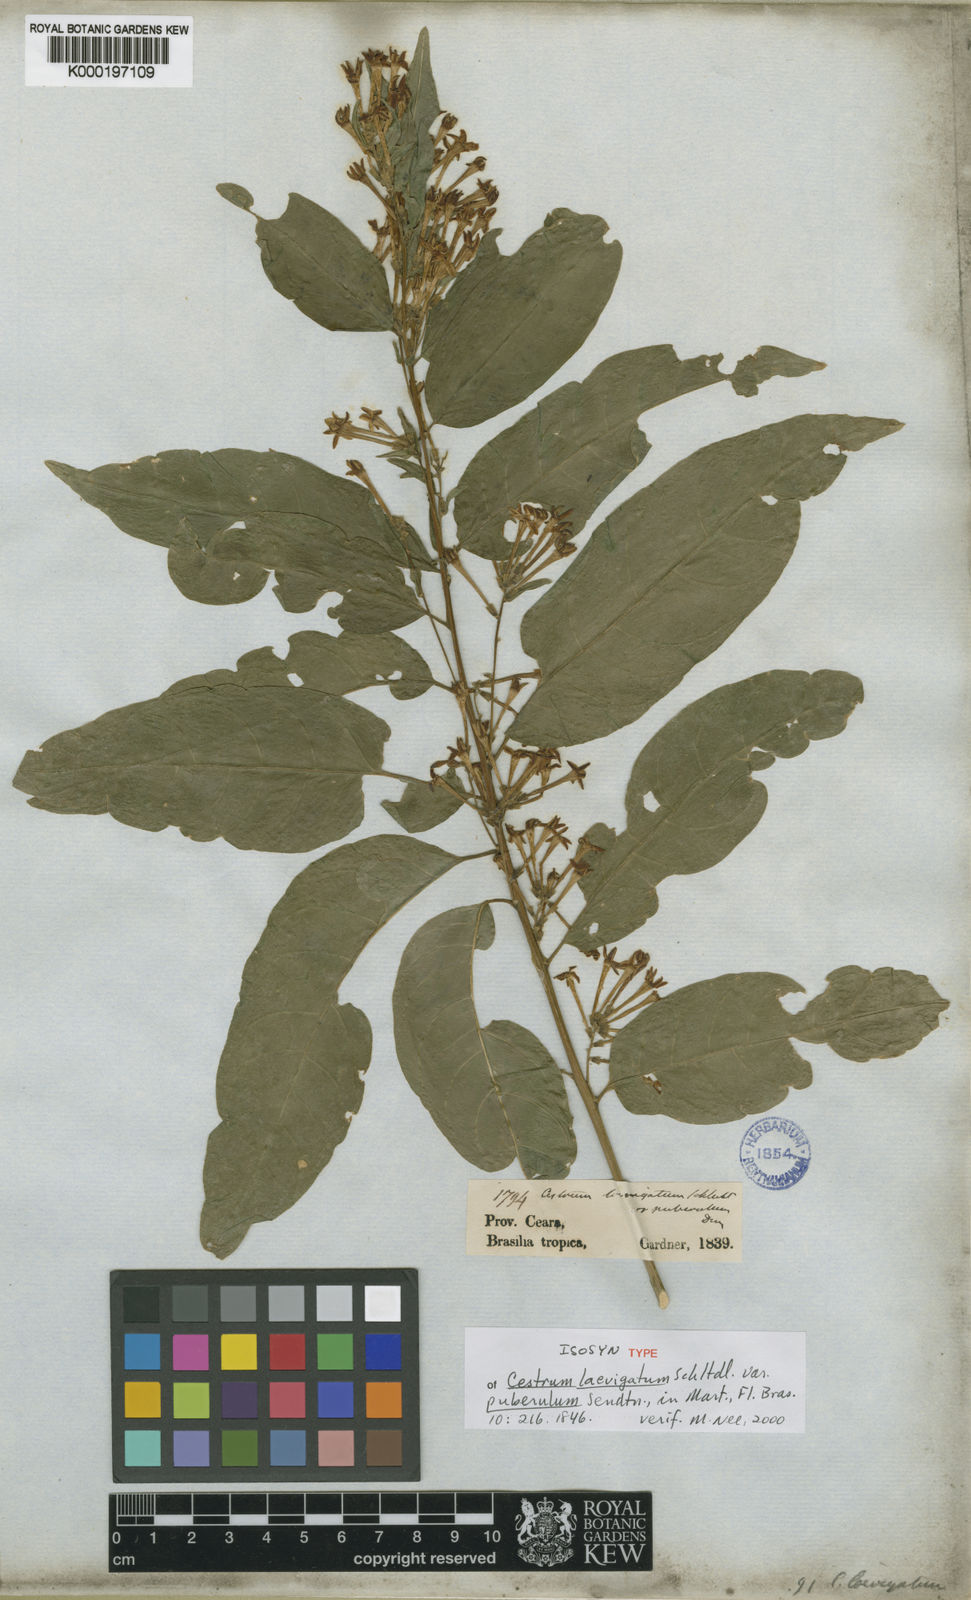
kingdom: Plantae
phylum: Tracheophyta
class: Magnoliopsida
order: Solanales
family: Solanaceae
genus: Cestrum
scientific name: Cestrum laevigatum
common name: Inkberry
